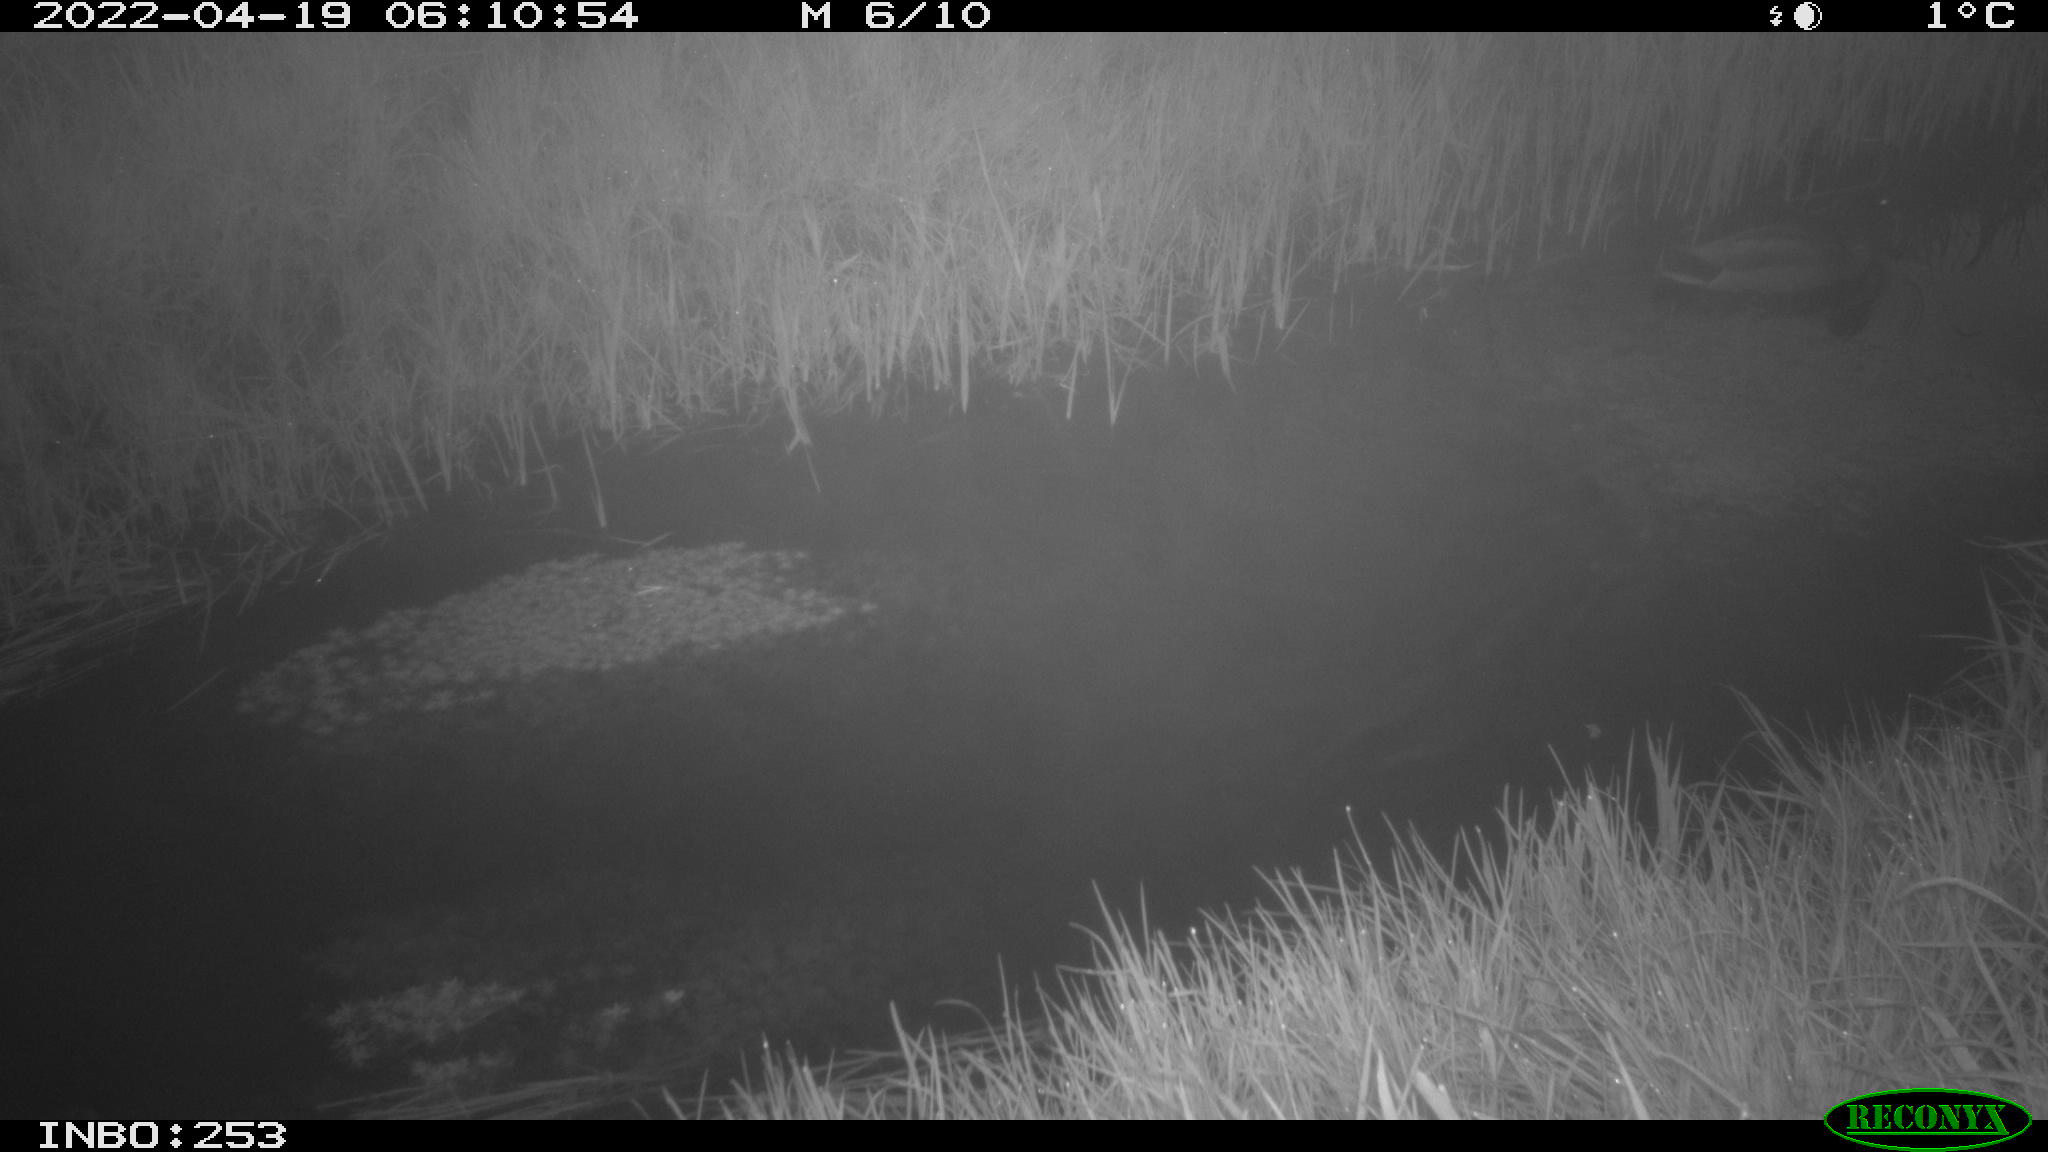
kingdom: Animalia
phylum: Chordata
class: Aves
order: Anseriformes
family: Anatidae
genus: Anas
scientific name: Anas platyrhynchos
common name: Mallard
